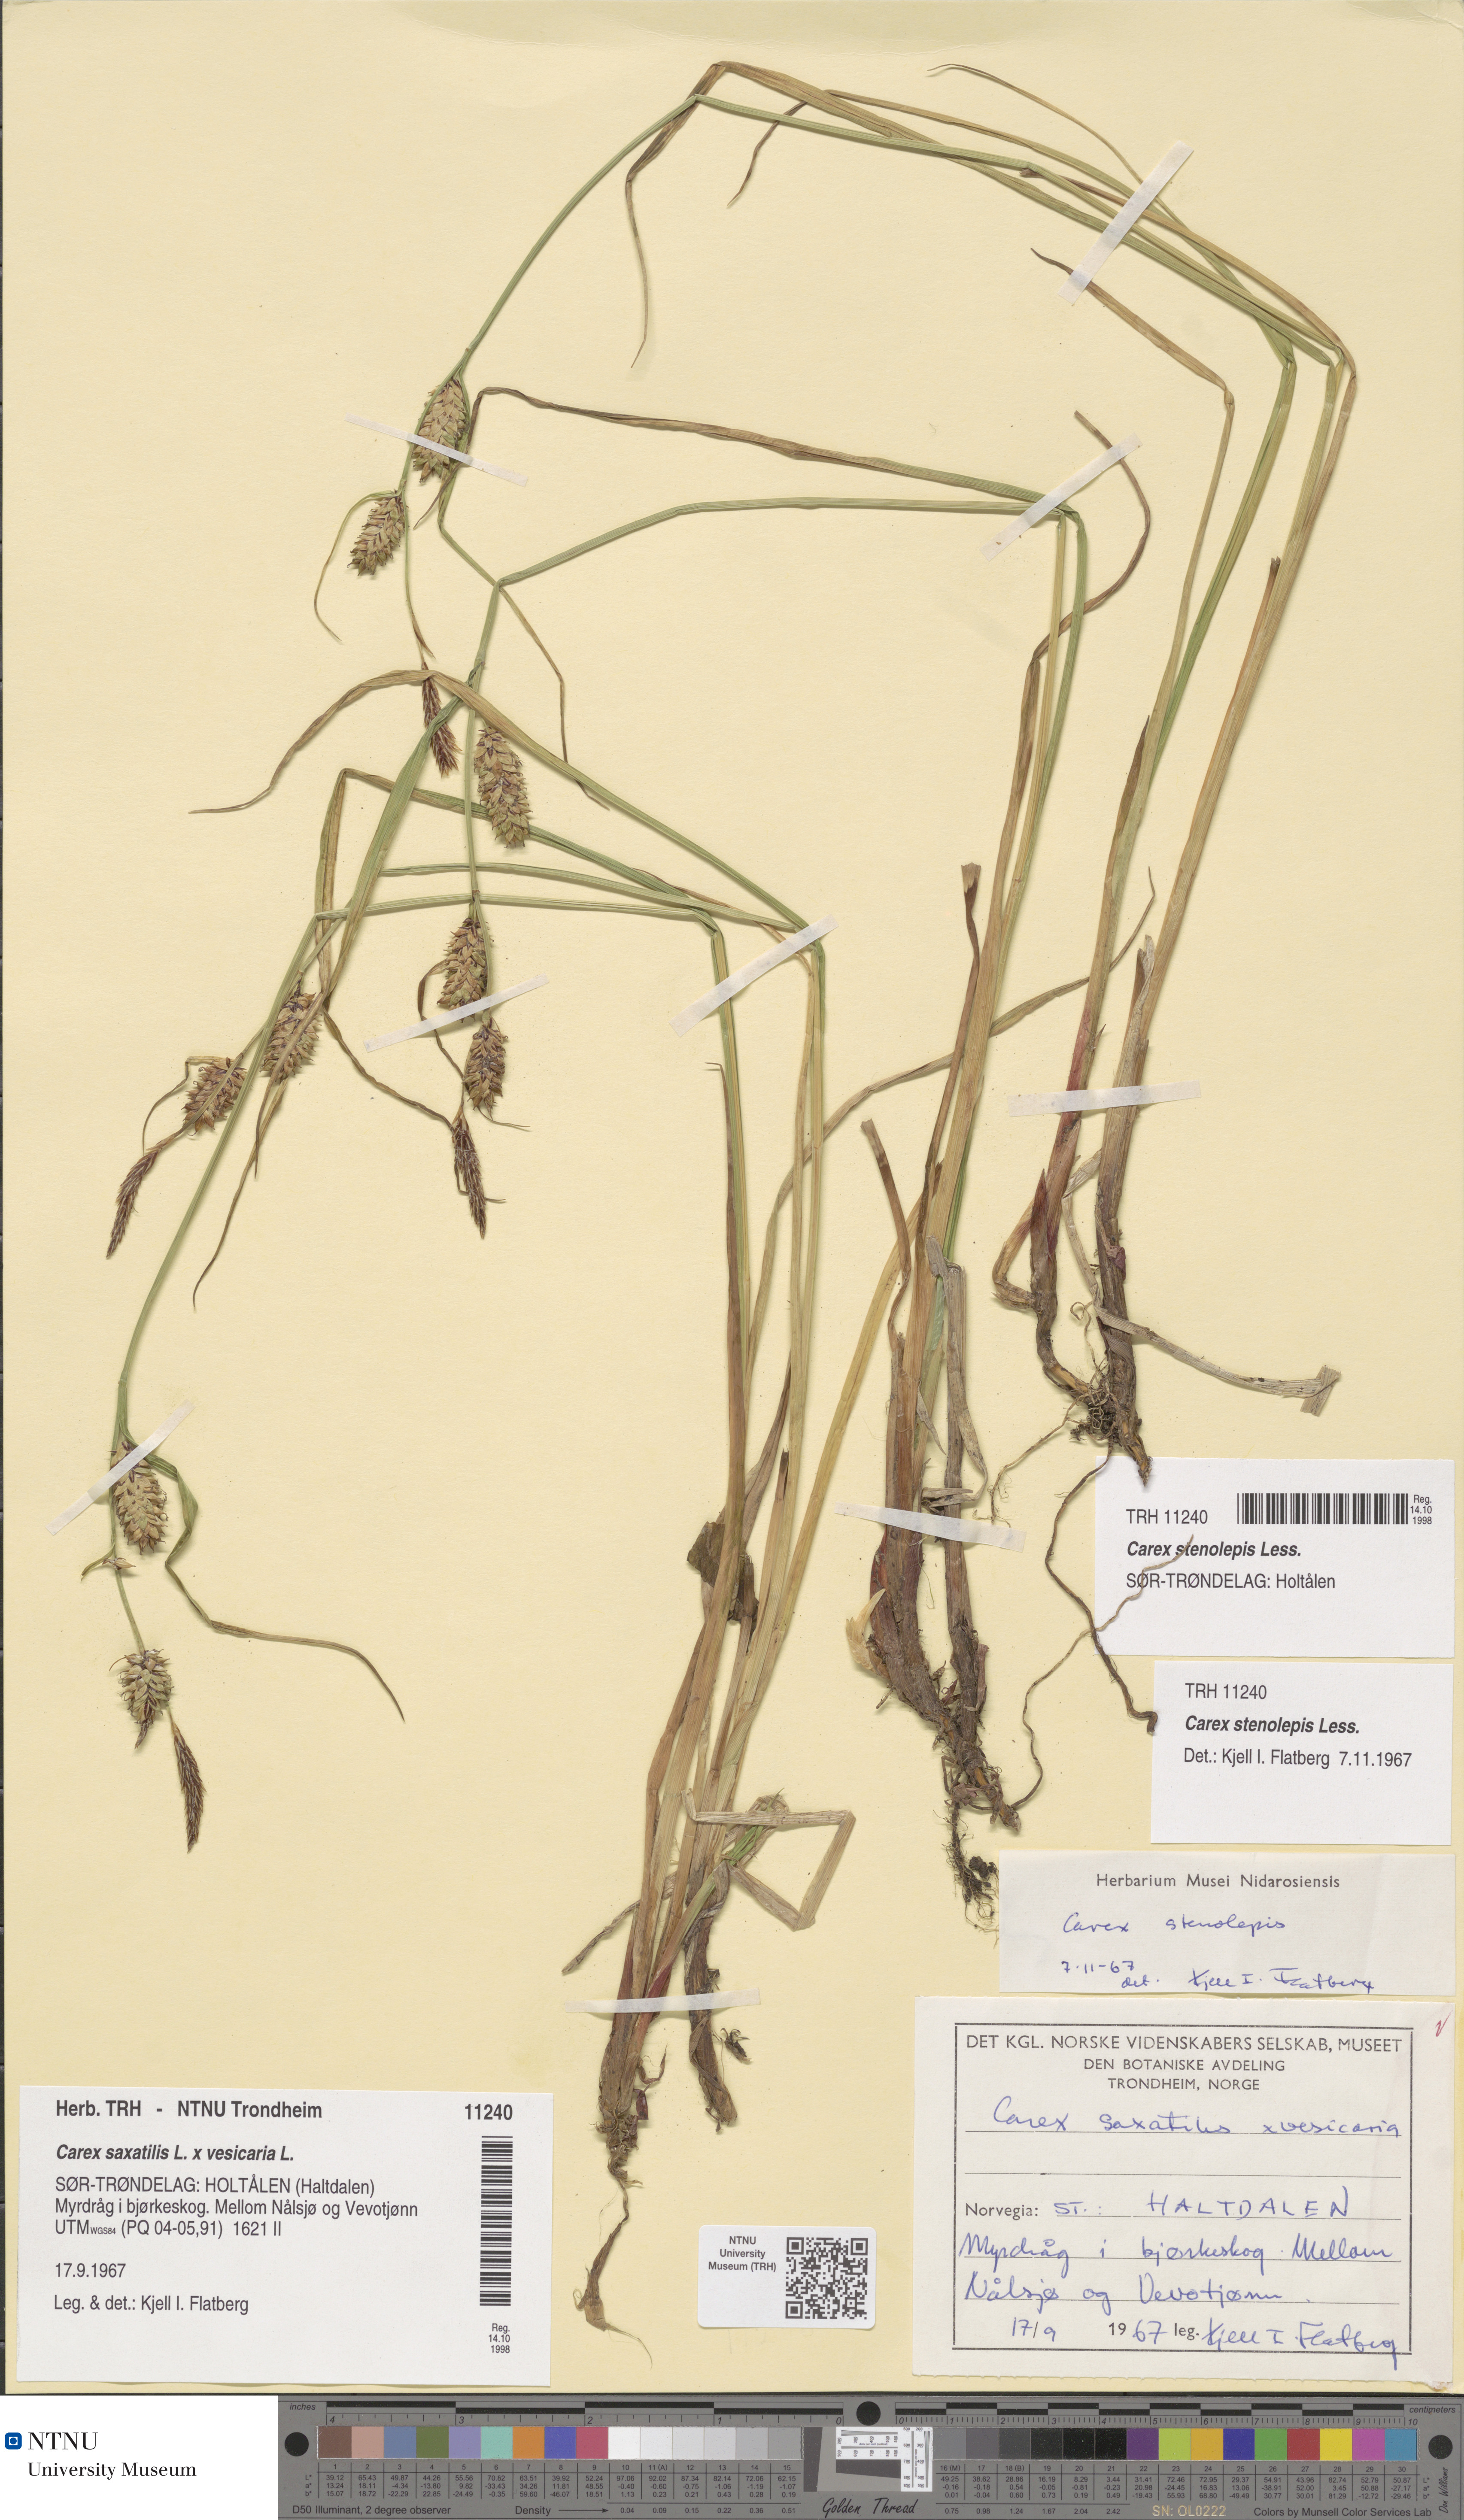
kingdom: Plantae
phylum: Tracheophyta
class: Liliopsida
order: Poales
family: Cyperaceae
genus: Carex
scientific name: Carex grahamii
